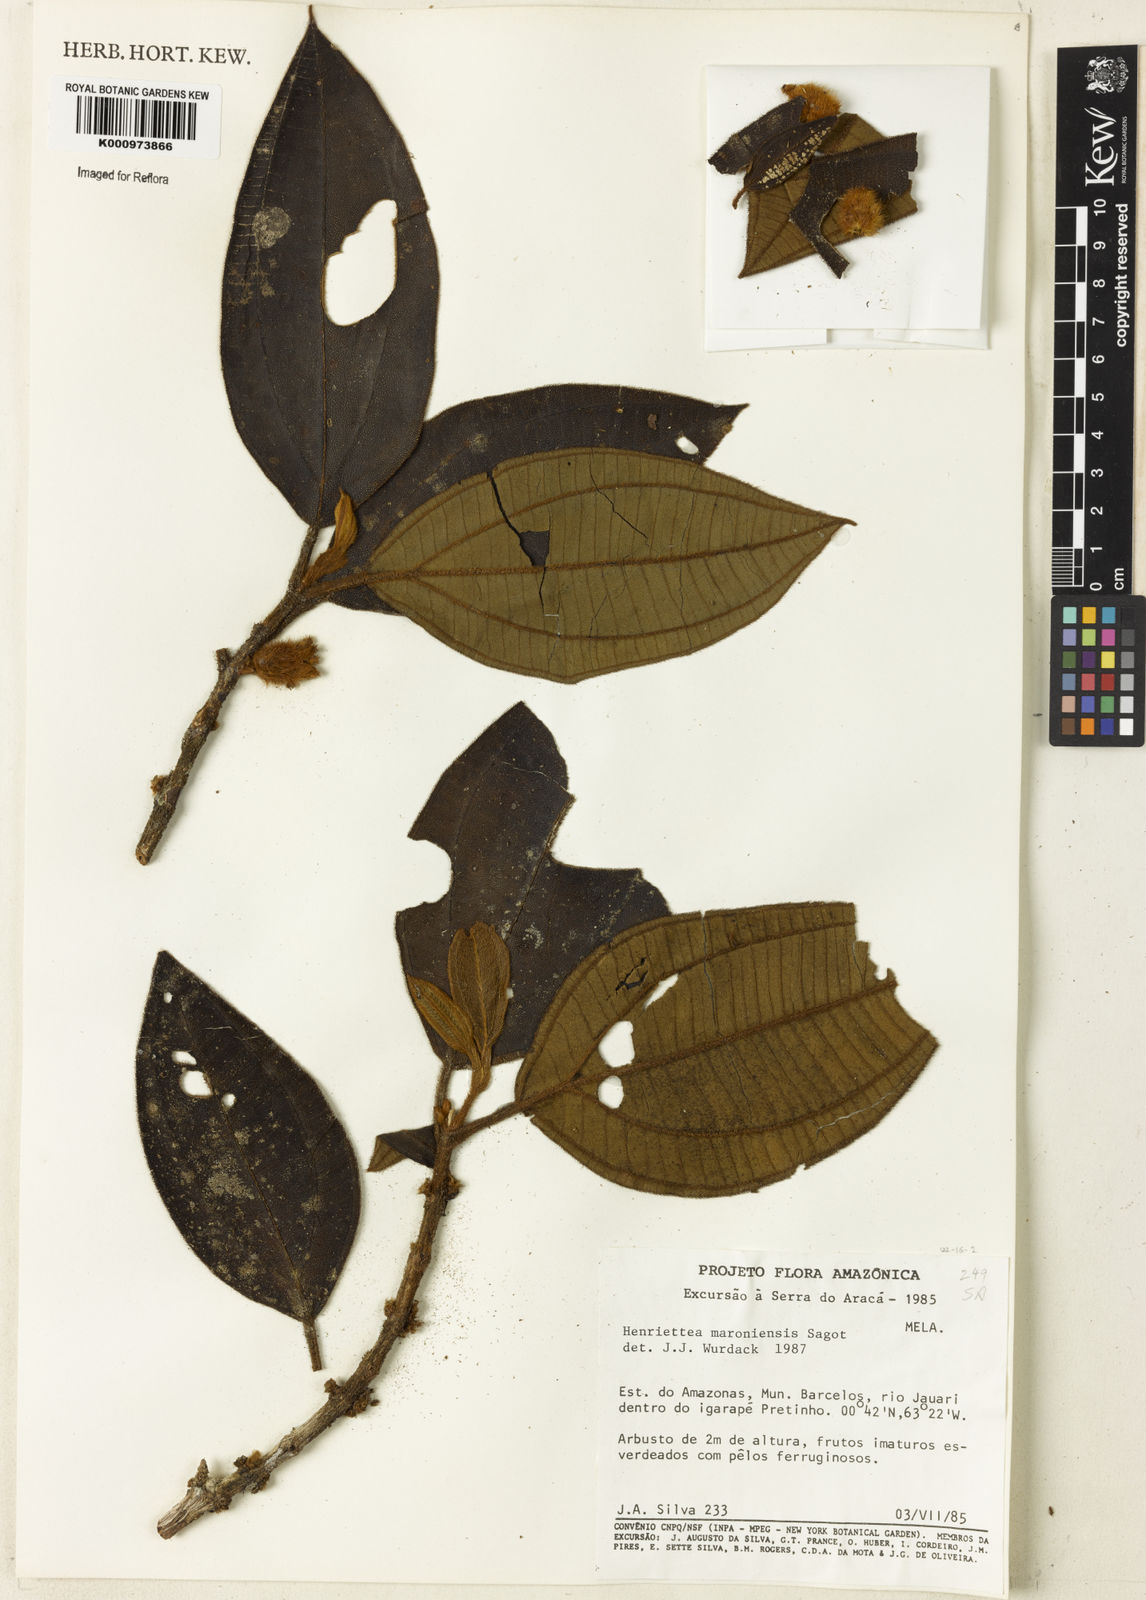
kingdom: Plantae
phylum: Tracheophyta
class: Magnoliopsida
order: Myrtales
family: Melastomataceae
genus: Henriettea
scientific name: Henriettea maroniensis
